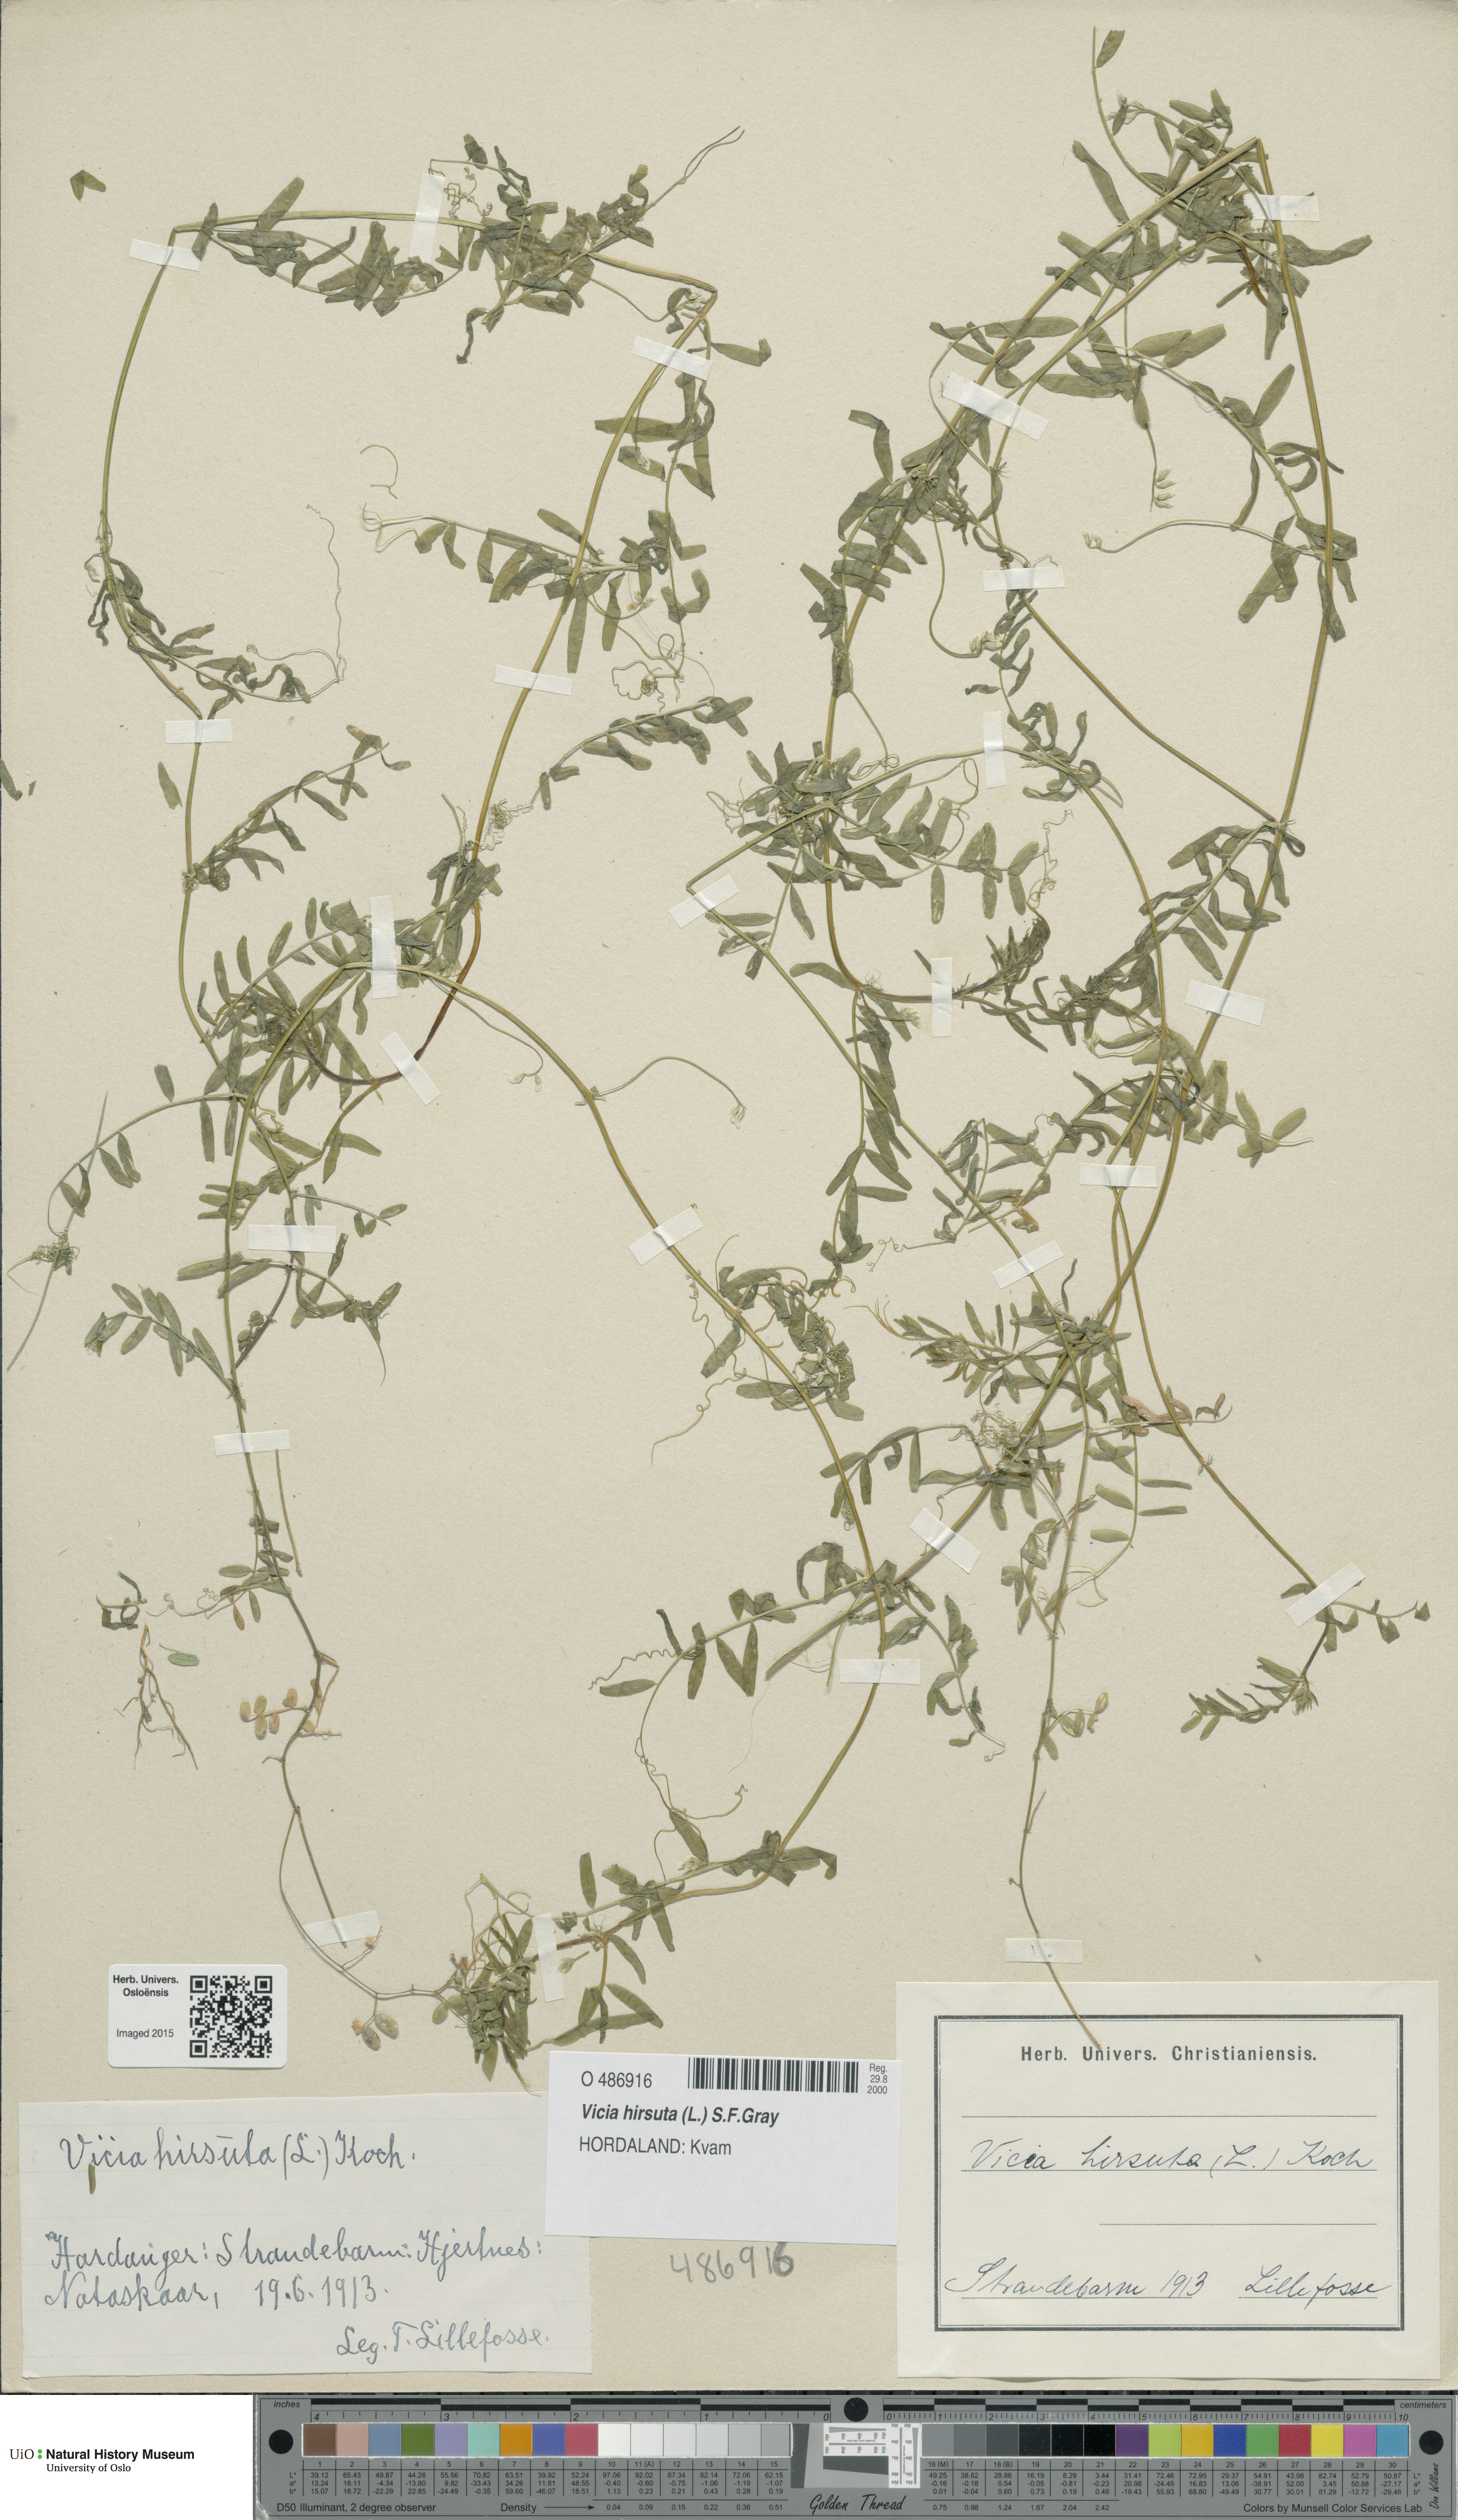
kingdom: Plantae
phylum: Tracheophyta
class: Magnoliopsida
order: Fabales
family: Fabaceae
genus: Vicia
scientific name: Vicia hirsuta
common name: Tiny vetch
